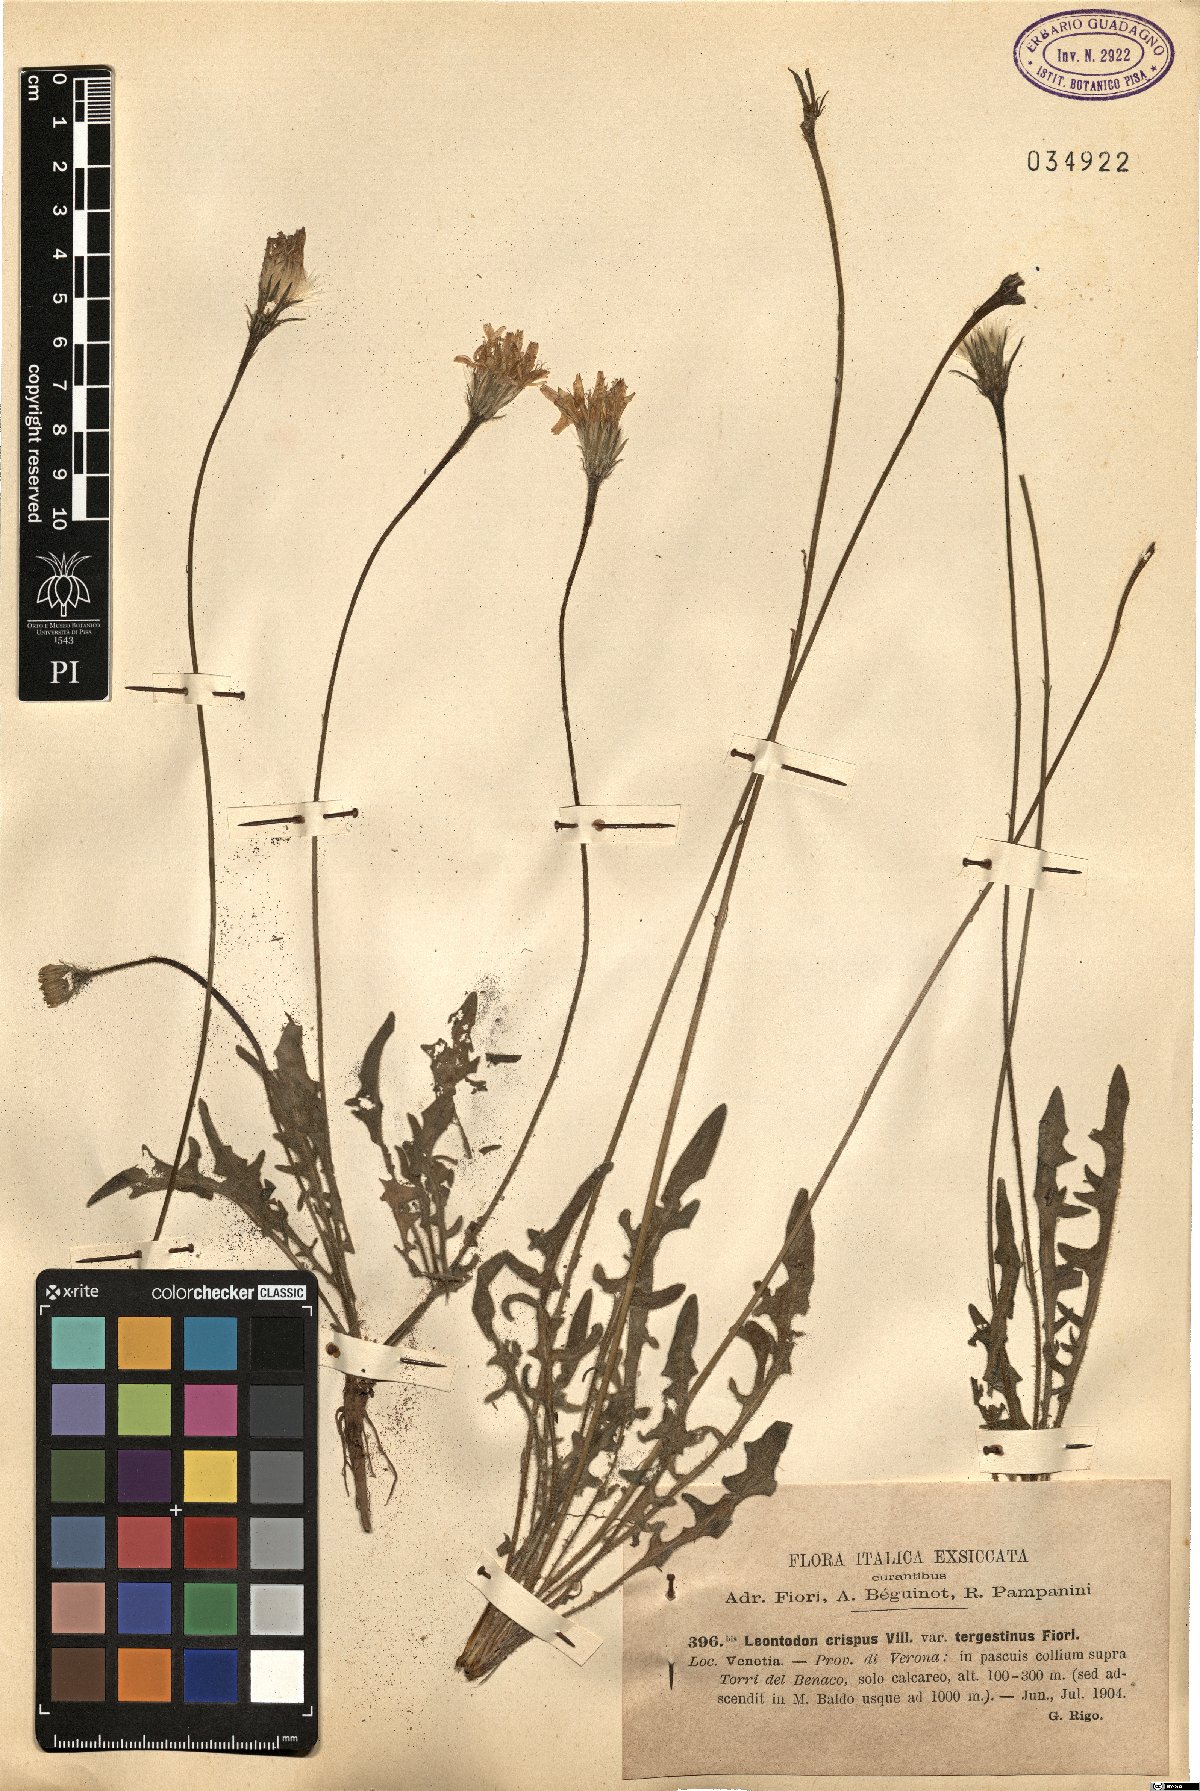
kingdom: Plantae
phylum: Tracheophyta
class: Magnoliopsida
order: Asterales
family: Asteraceae
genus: Leontodon
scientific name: Leontodon crispus
